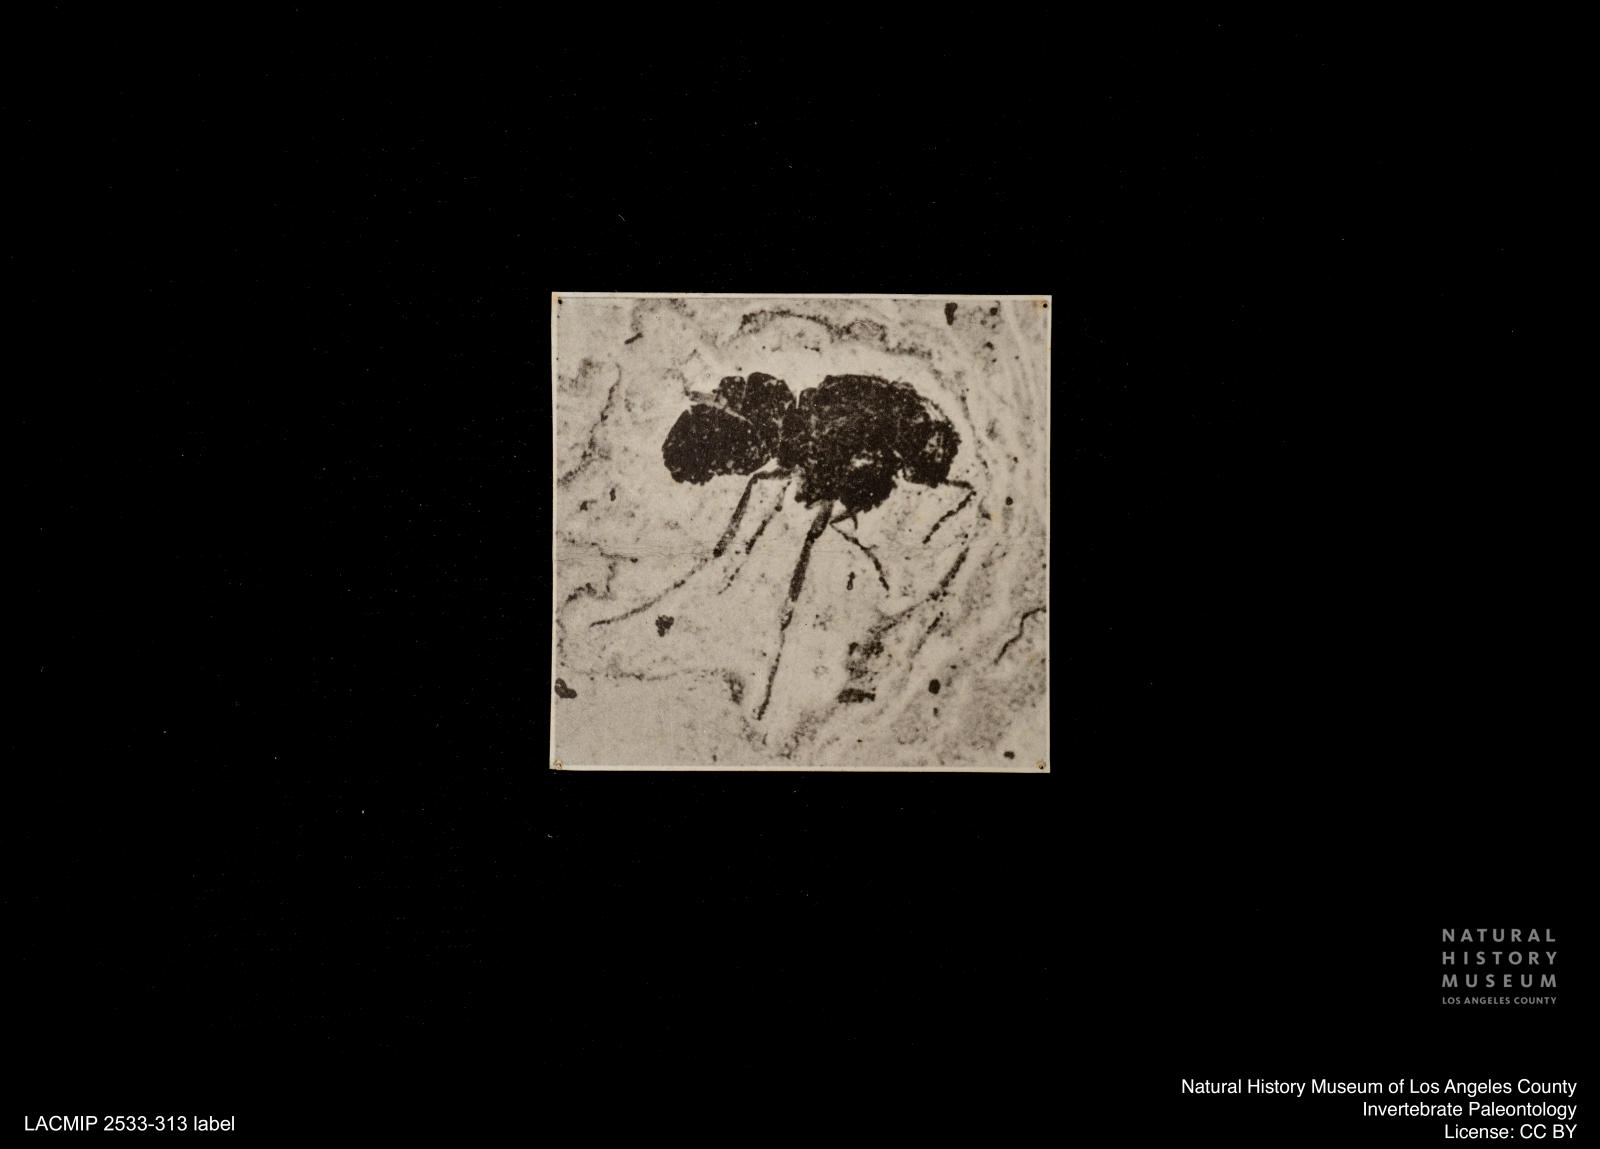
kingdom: Animalia
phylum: Arthropoda
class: Insecta
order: Diptera
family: Ceratopogonidae
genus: Ceratopogon
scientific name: Ceratopogon
